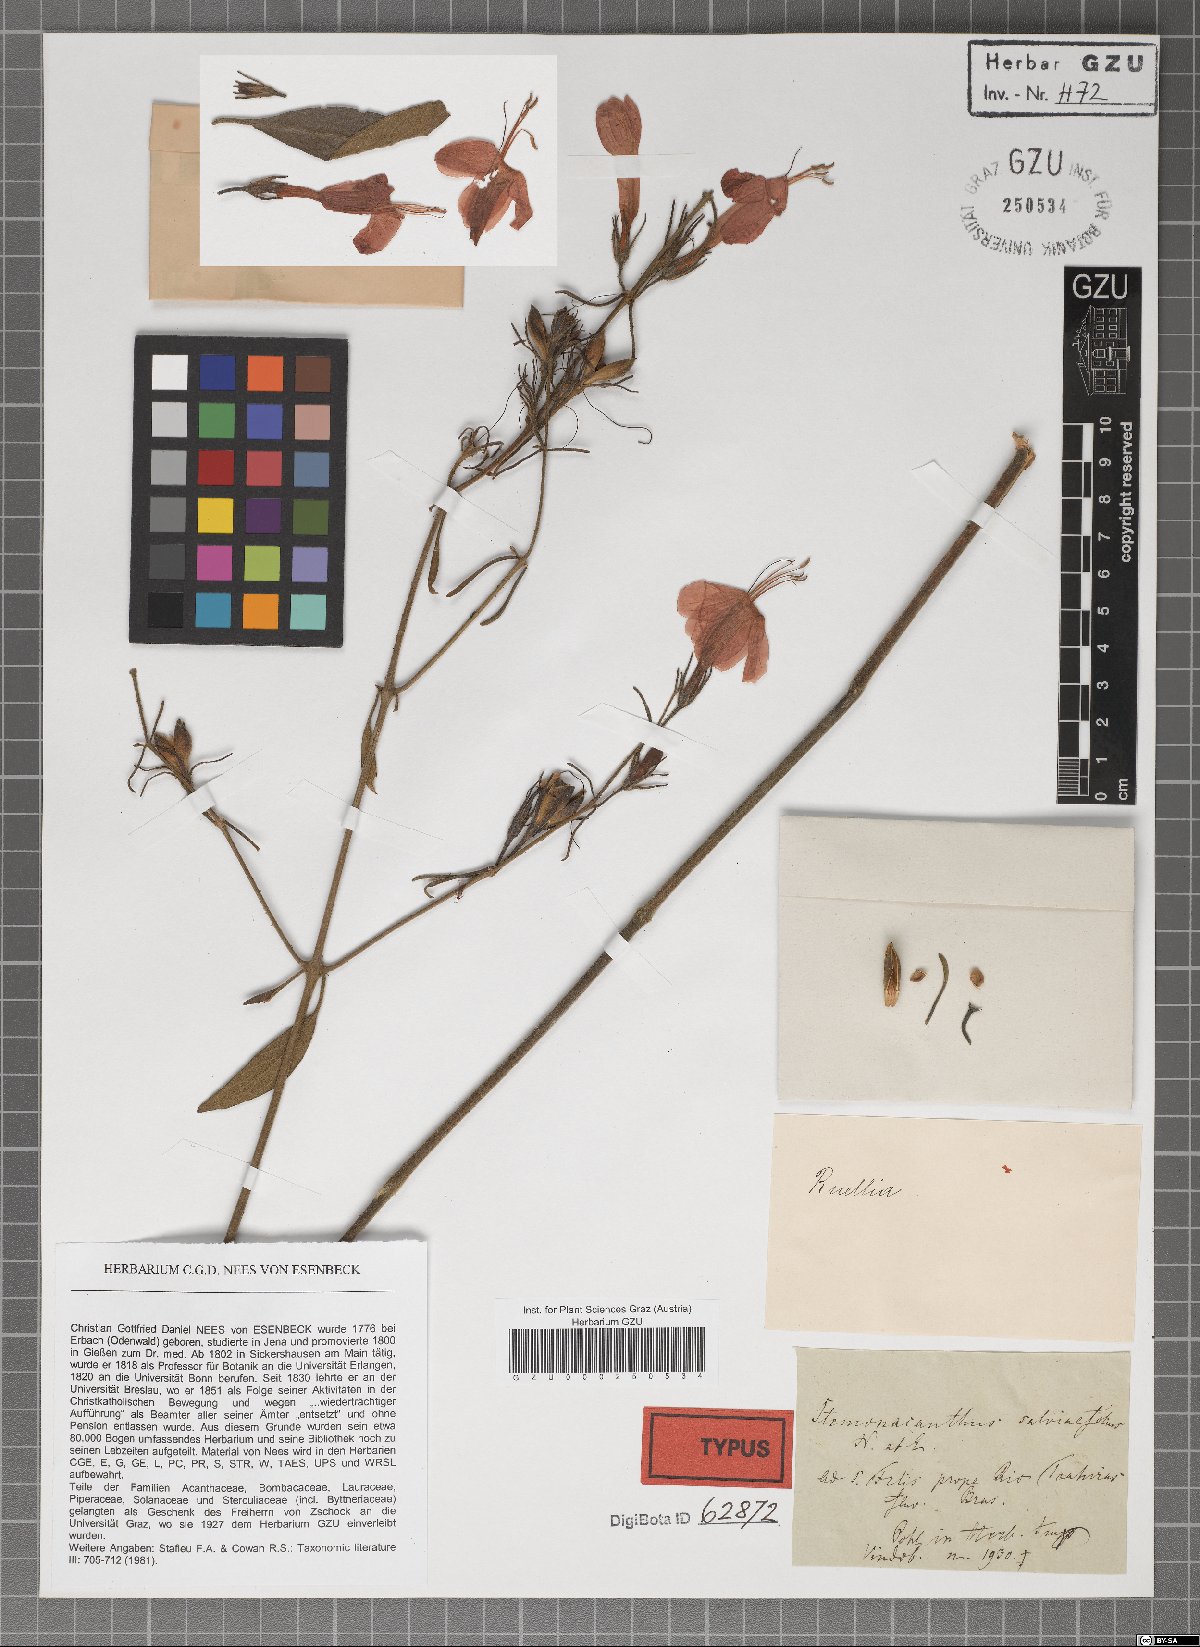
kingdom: Plantae
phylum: Tracheophyta
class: Magnoliopsida
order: Lamiales
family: Acanthaceae
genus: Ruellia
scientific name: Ruellia salviifolia
